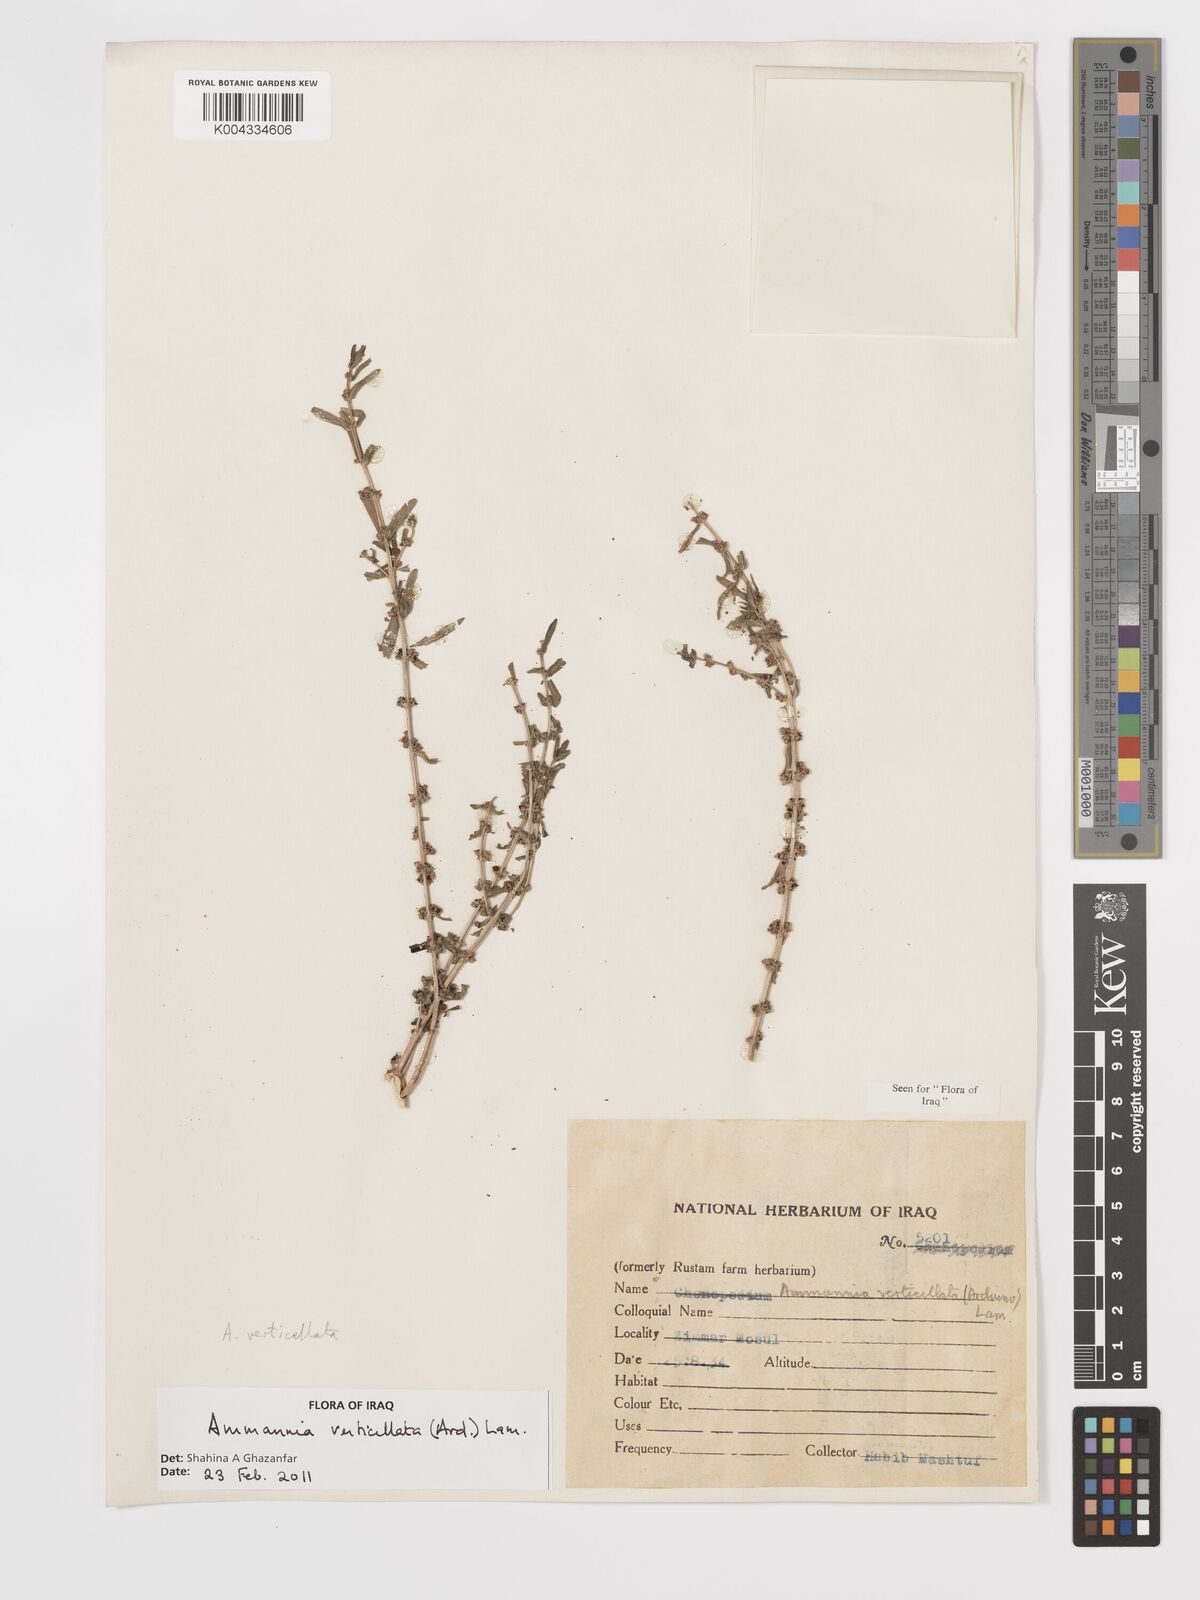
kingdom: Plantae
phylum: Tracheophyta
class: Magnoliopsida
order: Myrtales
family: Lythraceae
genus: Ammannia
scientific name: Ammannia baccifera
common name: Blistering ammania
